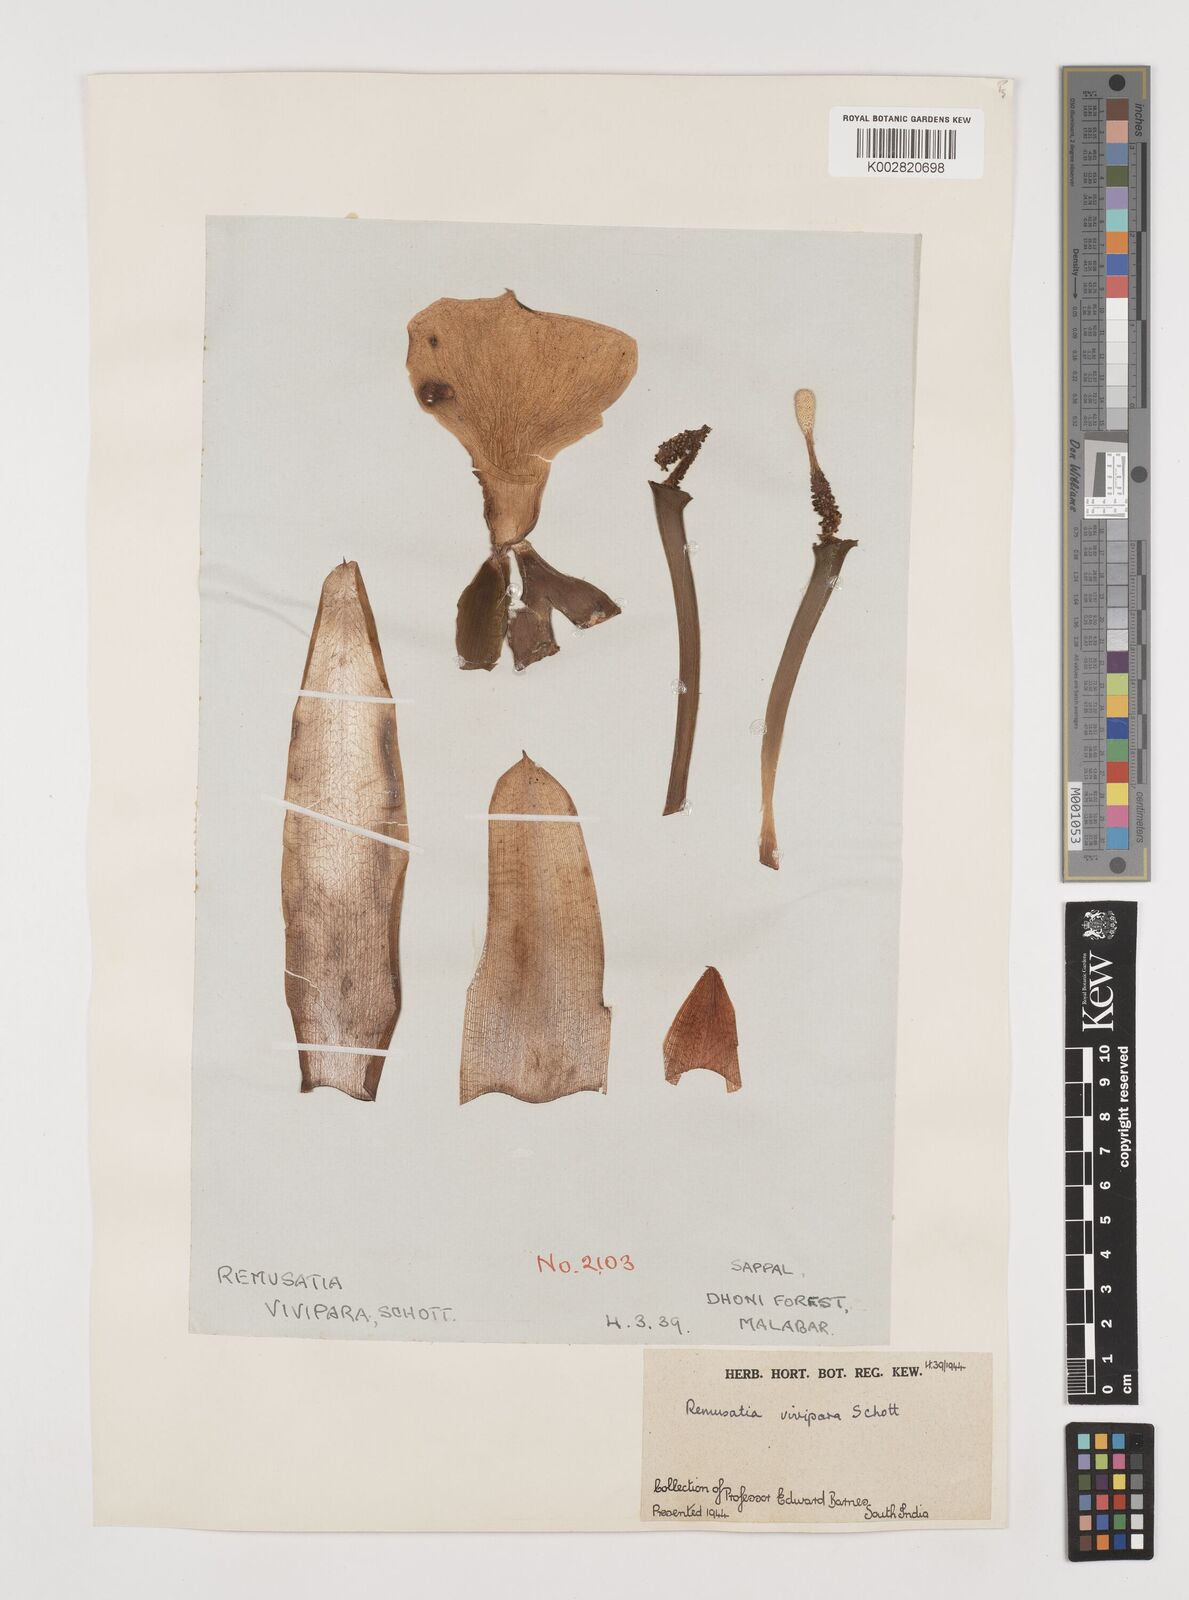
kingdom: Plantae
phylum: Tracheophyta
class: Liliopsida
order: Alismatales
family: Araceae
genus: Remusatia
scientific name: Remusatia vivipara
